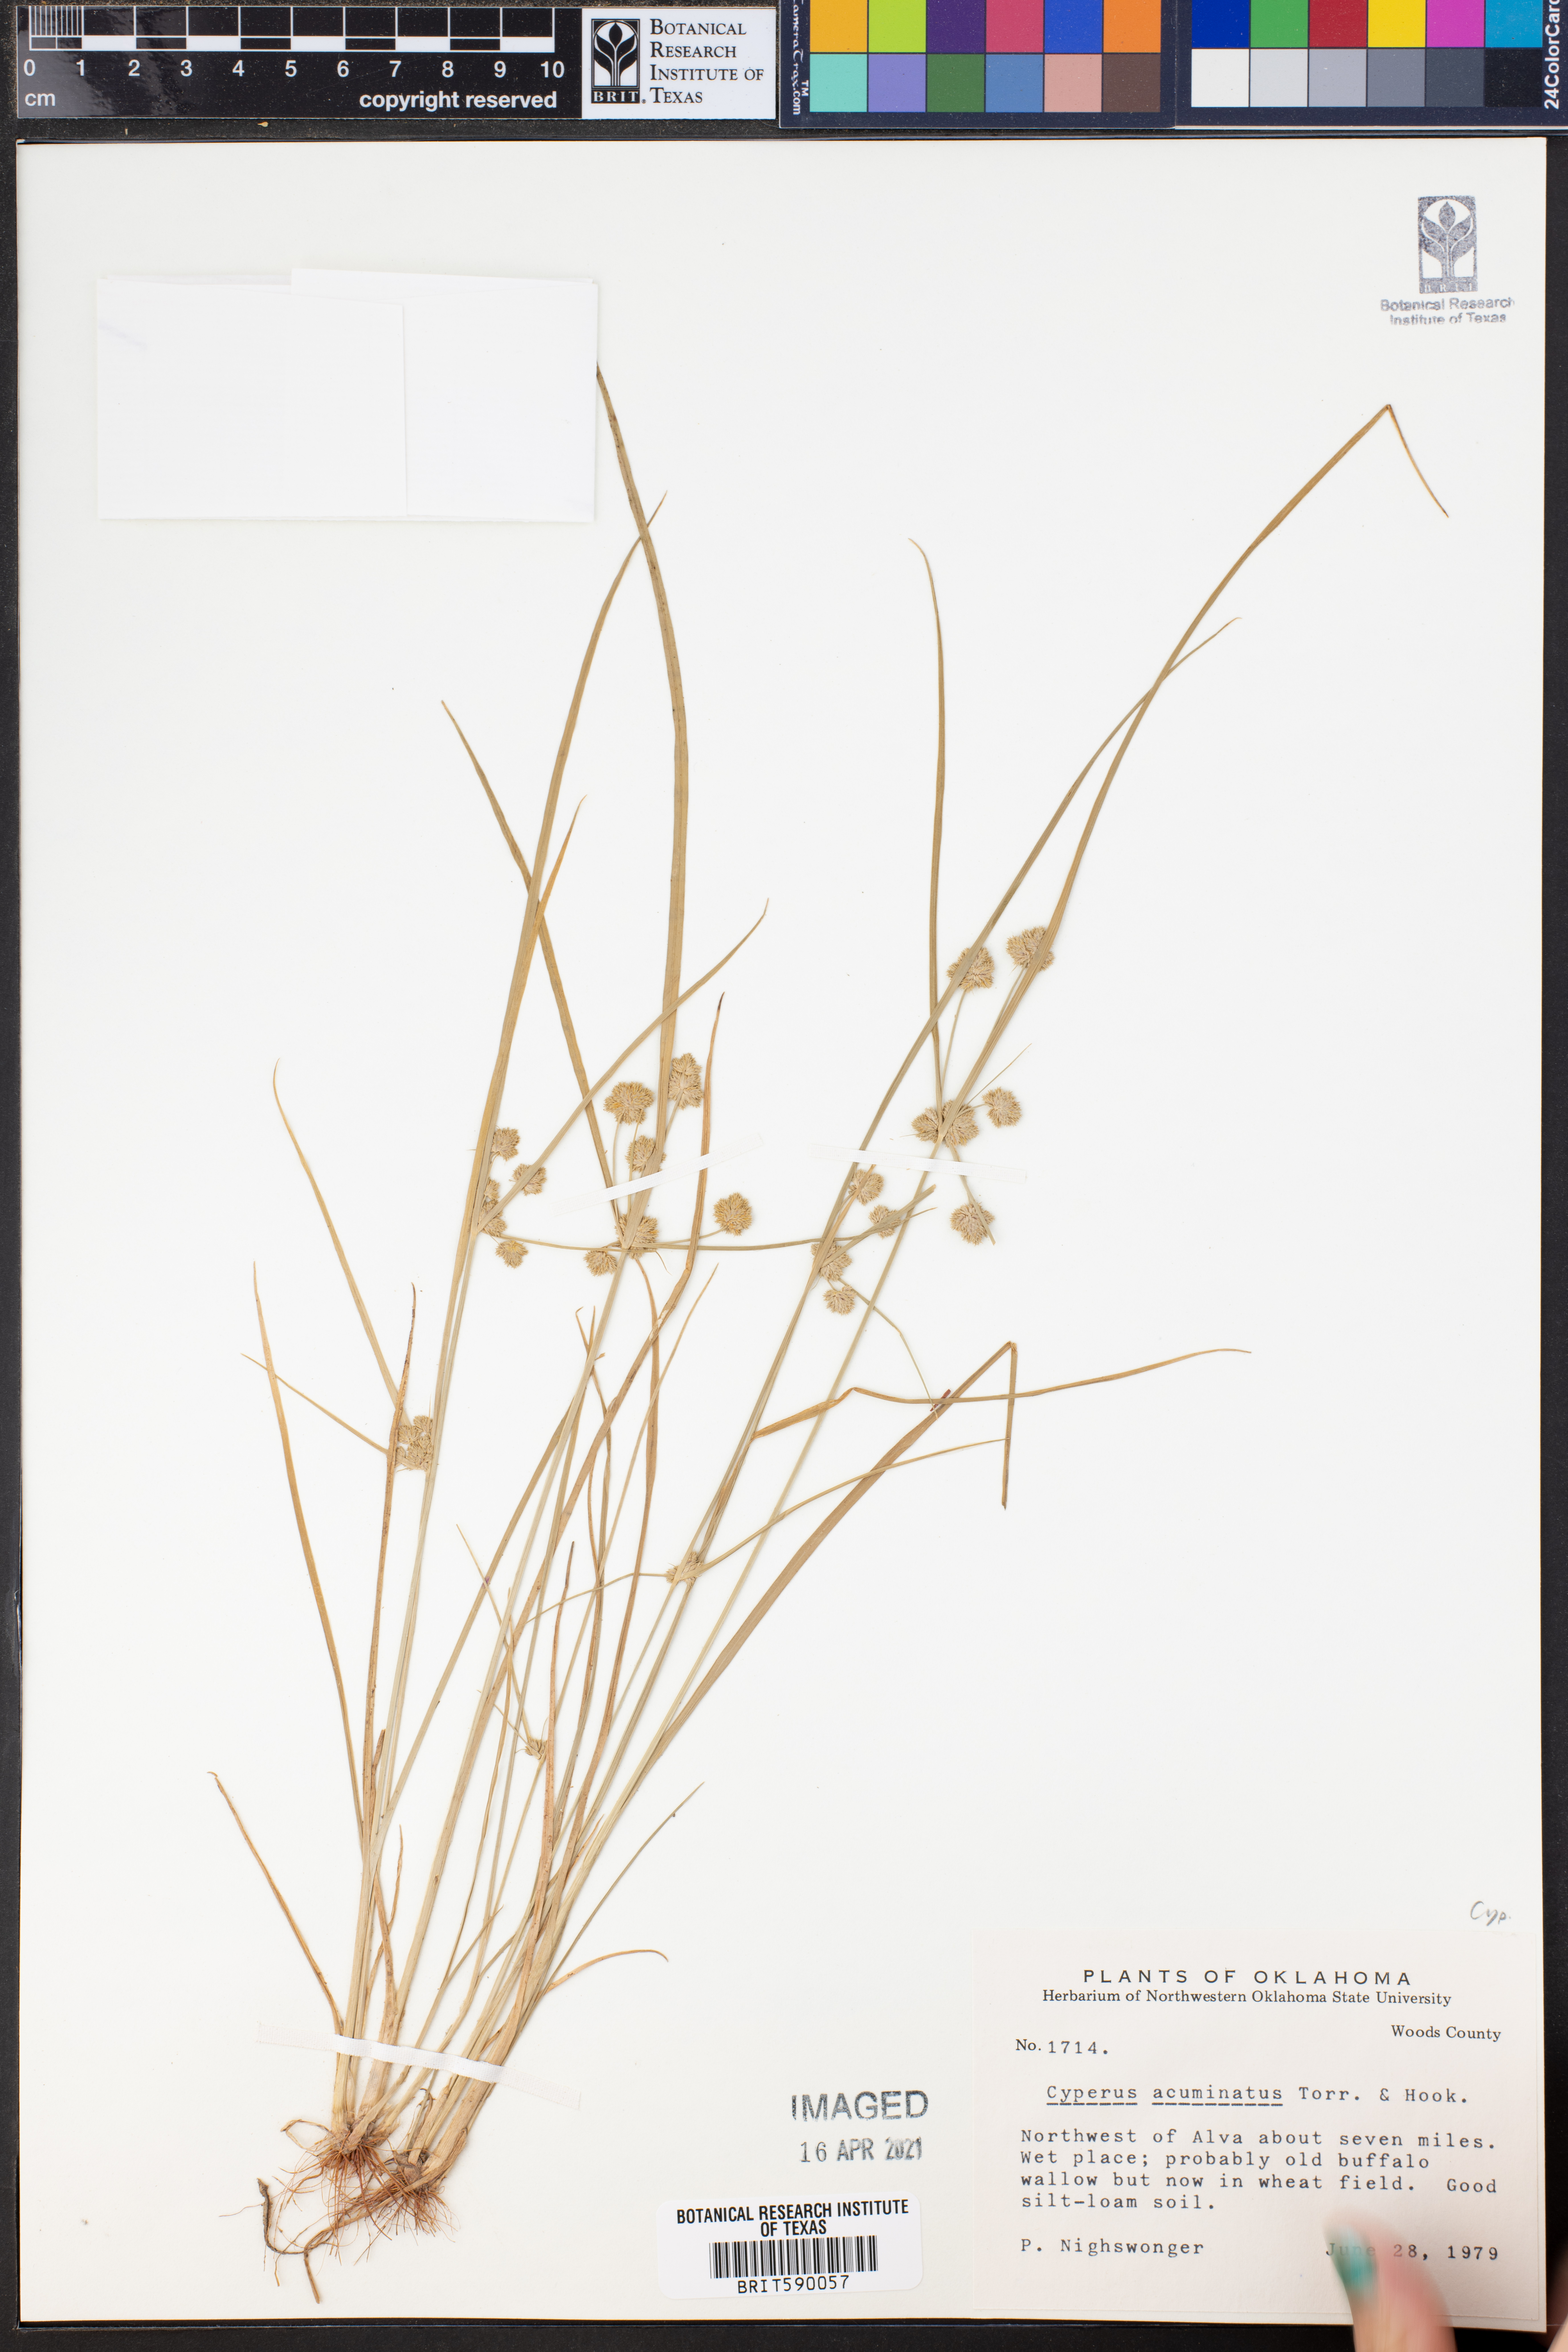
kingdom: Plantae
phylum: Tracheophyta
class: Liliopsida
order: Poales
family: Cyperaceae
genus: Cyperus
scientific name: Cyperus acuminatus
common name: Short-pointed cyperus
